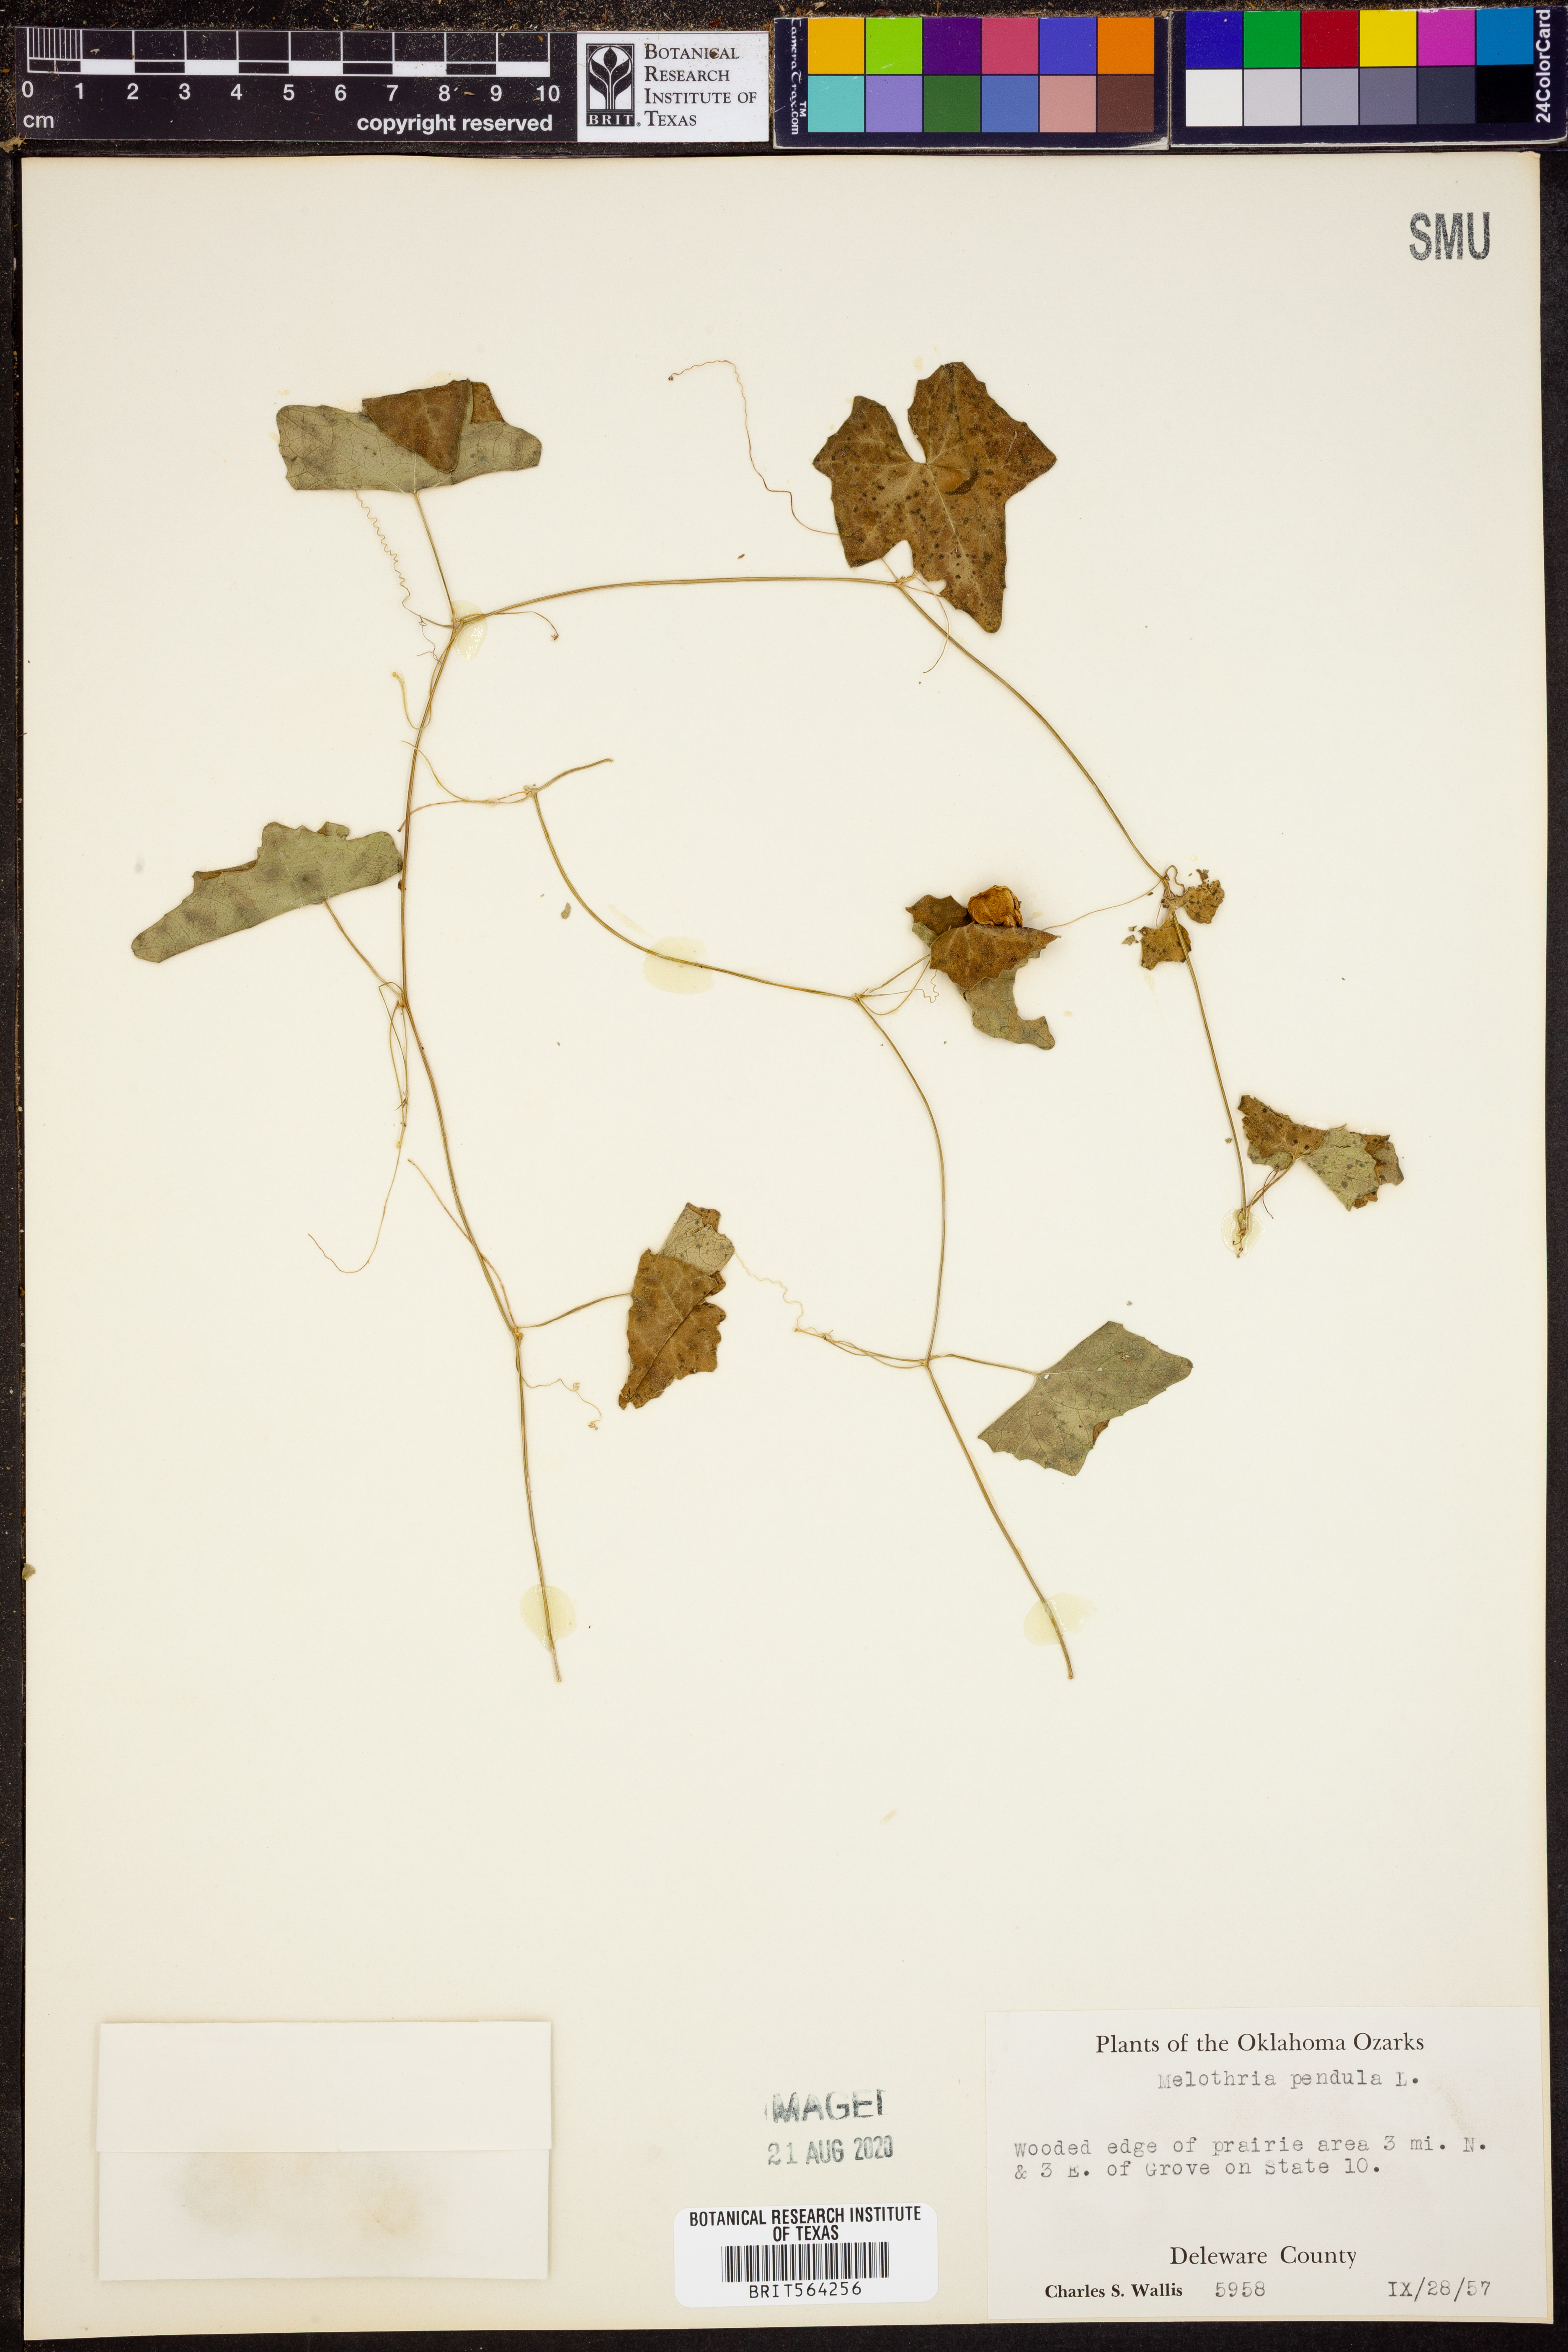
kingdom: Plantae
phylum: Tracheophyta
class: Magnoliopsida
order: Cucurbitales
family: Cucurbitaceae
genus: Melothria
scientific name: Melothria pendula
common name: Creeping-cucumber
